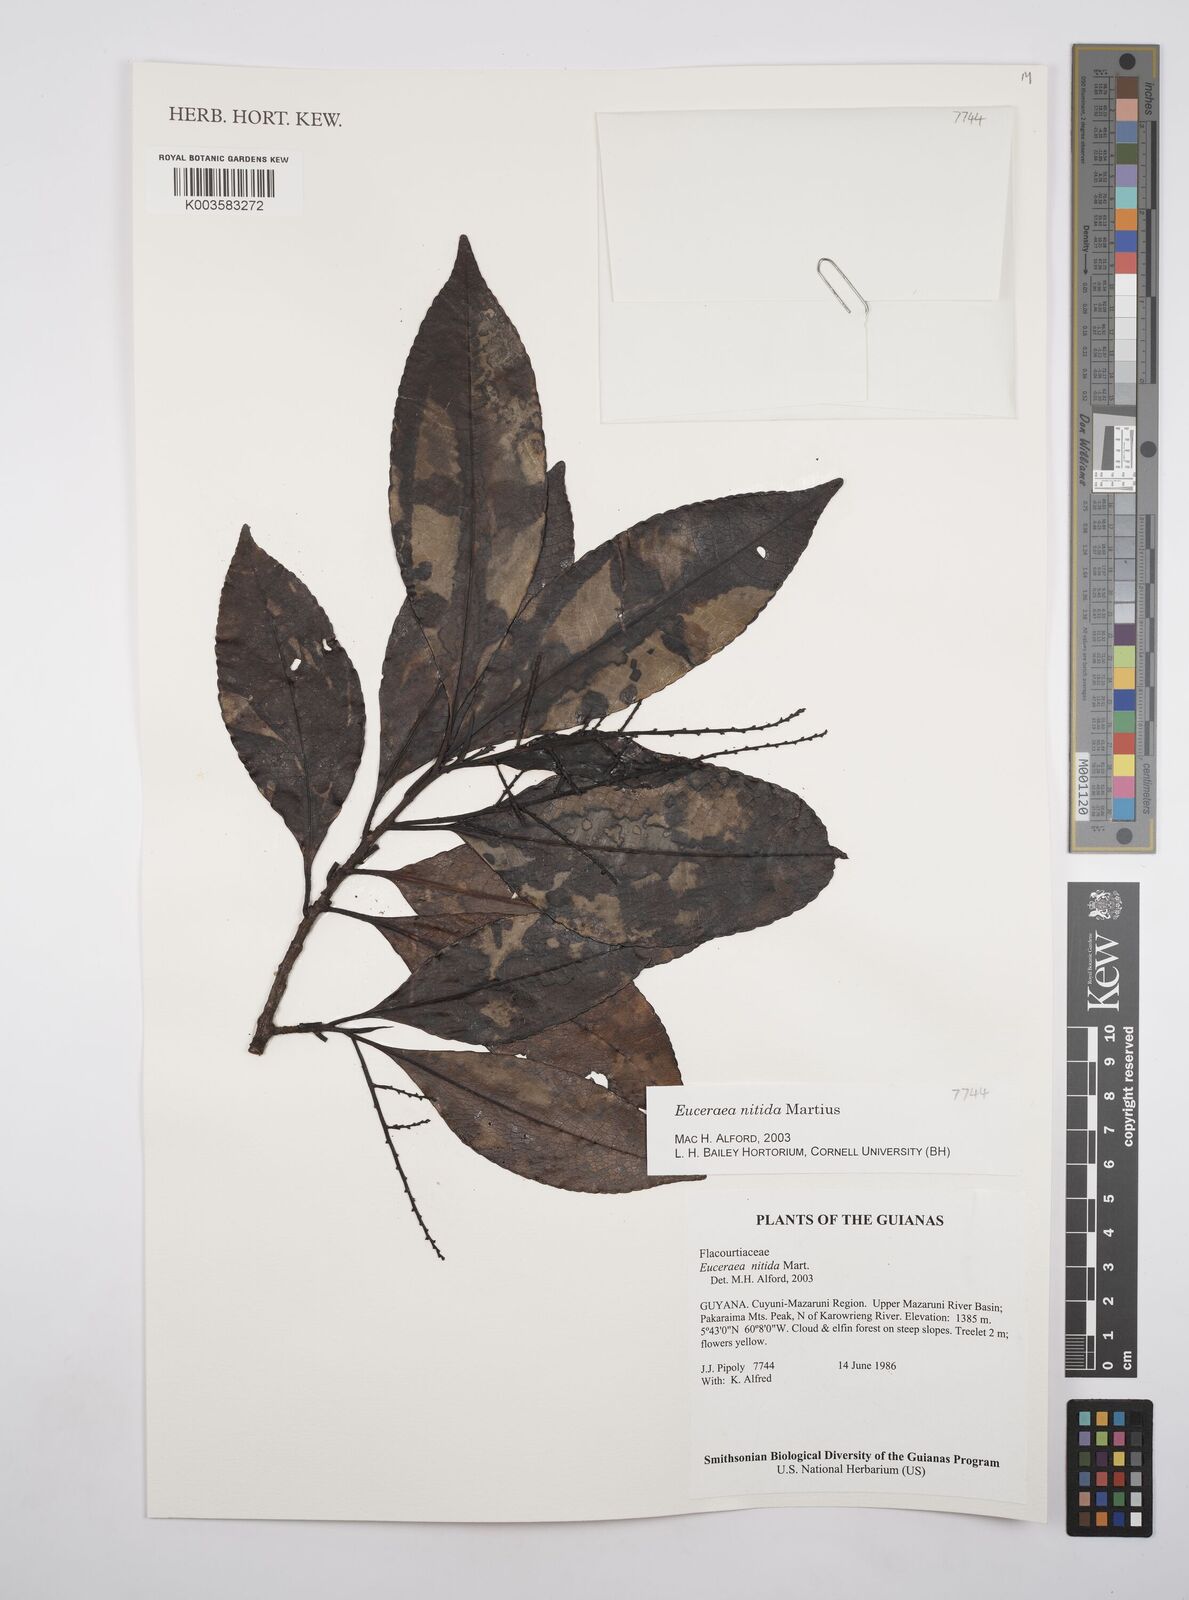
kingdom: Plantae
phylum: Tracheophyta
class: Magnoliopsida
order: Malpighiales
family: Salicaceae
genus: Casearia
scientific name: Casearia euceraea
